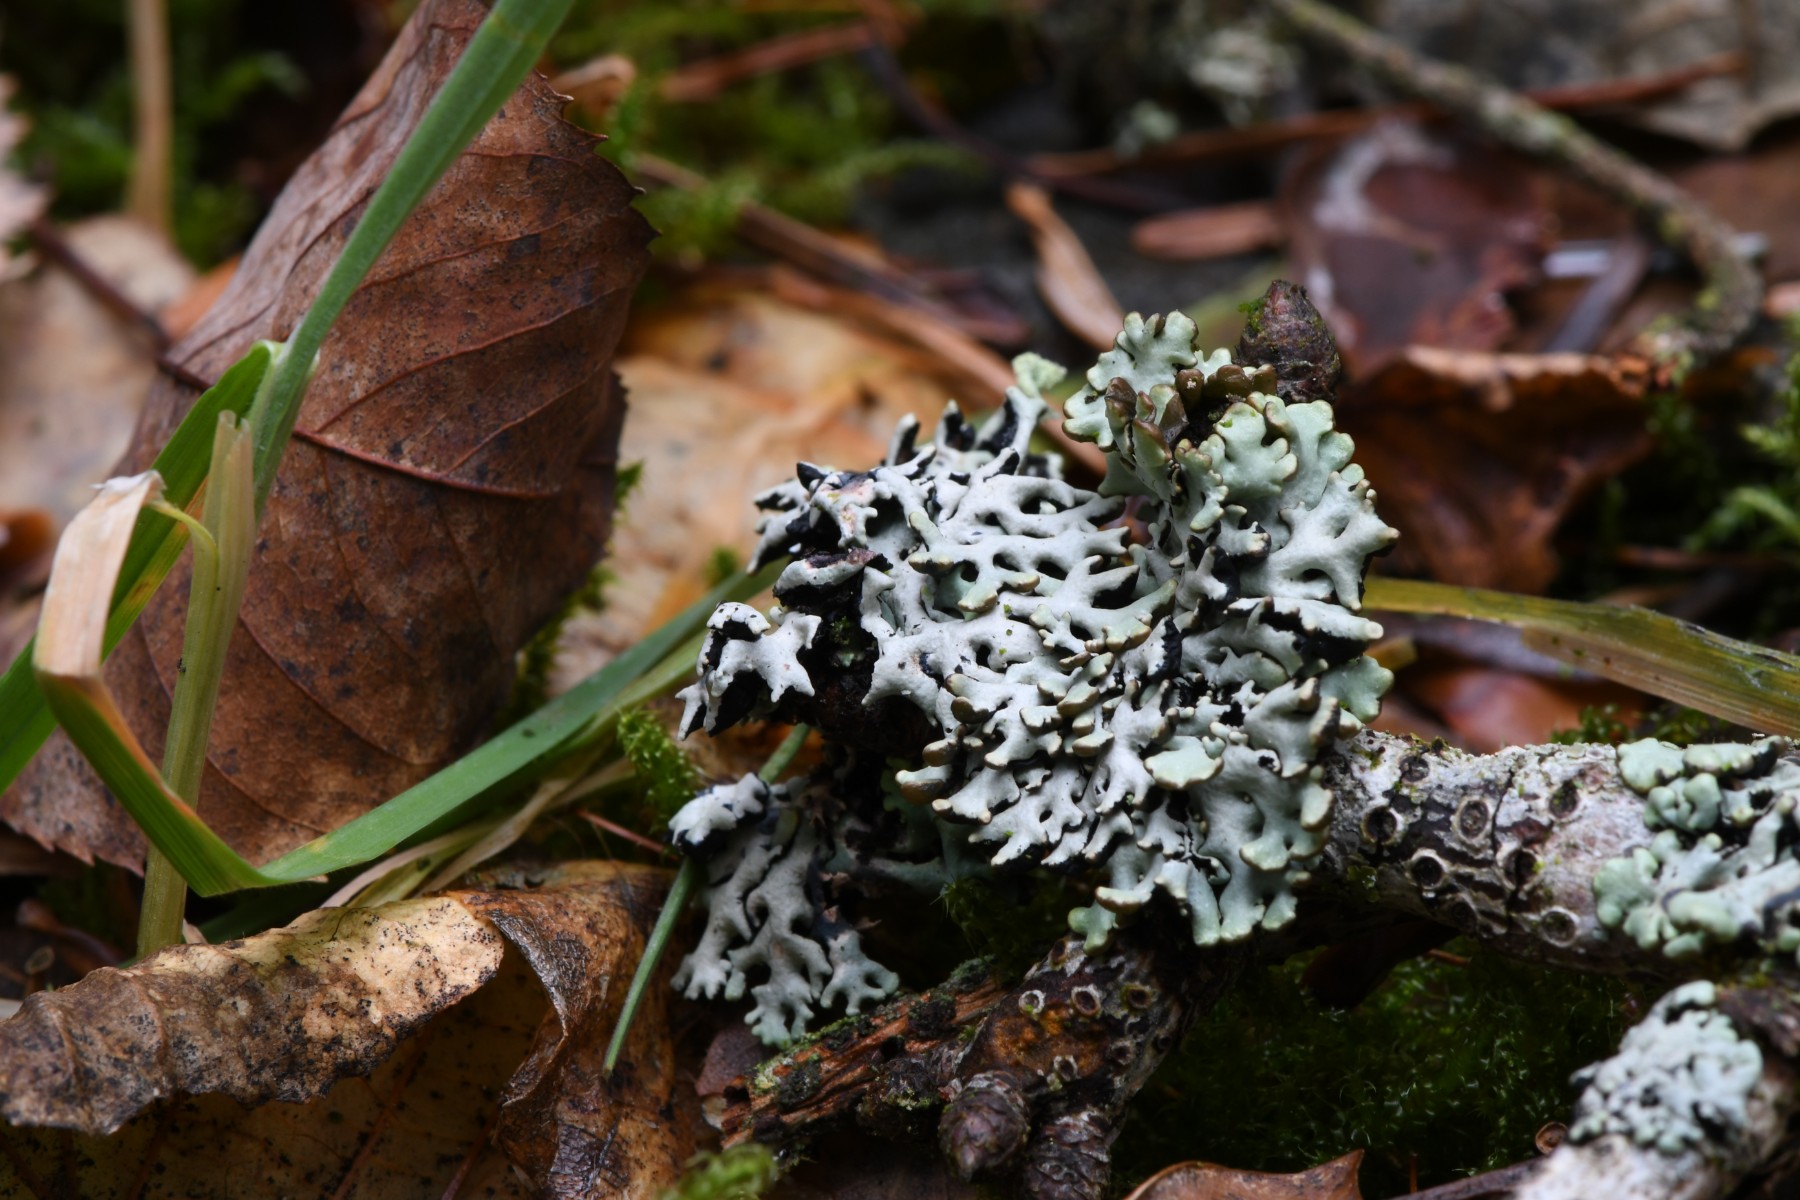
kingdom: Fungi
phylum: Ascomycota
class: Lecanoromycetes
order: Lecanorales
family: Parmeliaceae
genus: Hypogymnia
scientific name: Hypogymnia physodes
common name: almindelig kvistlav
